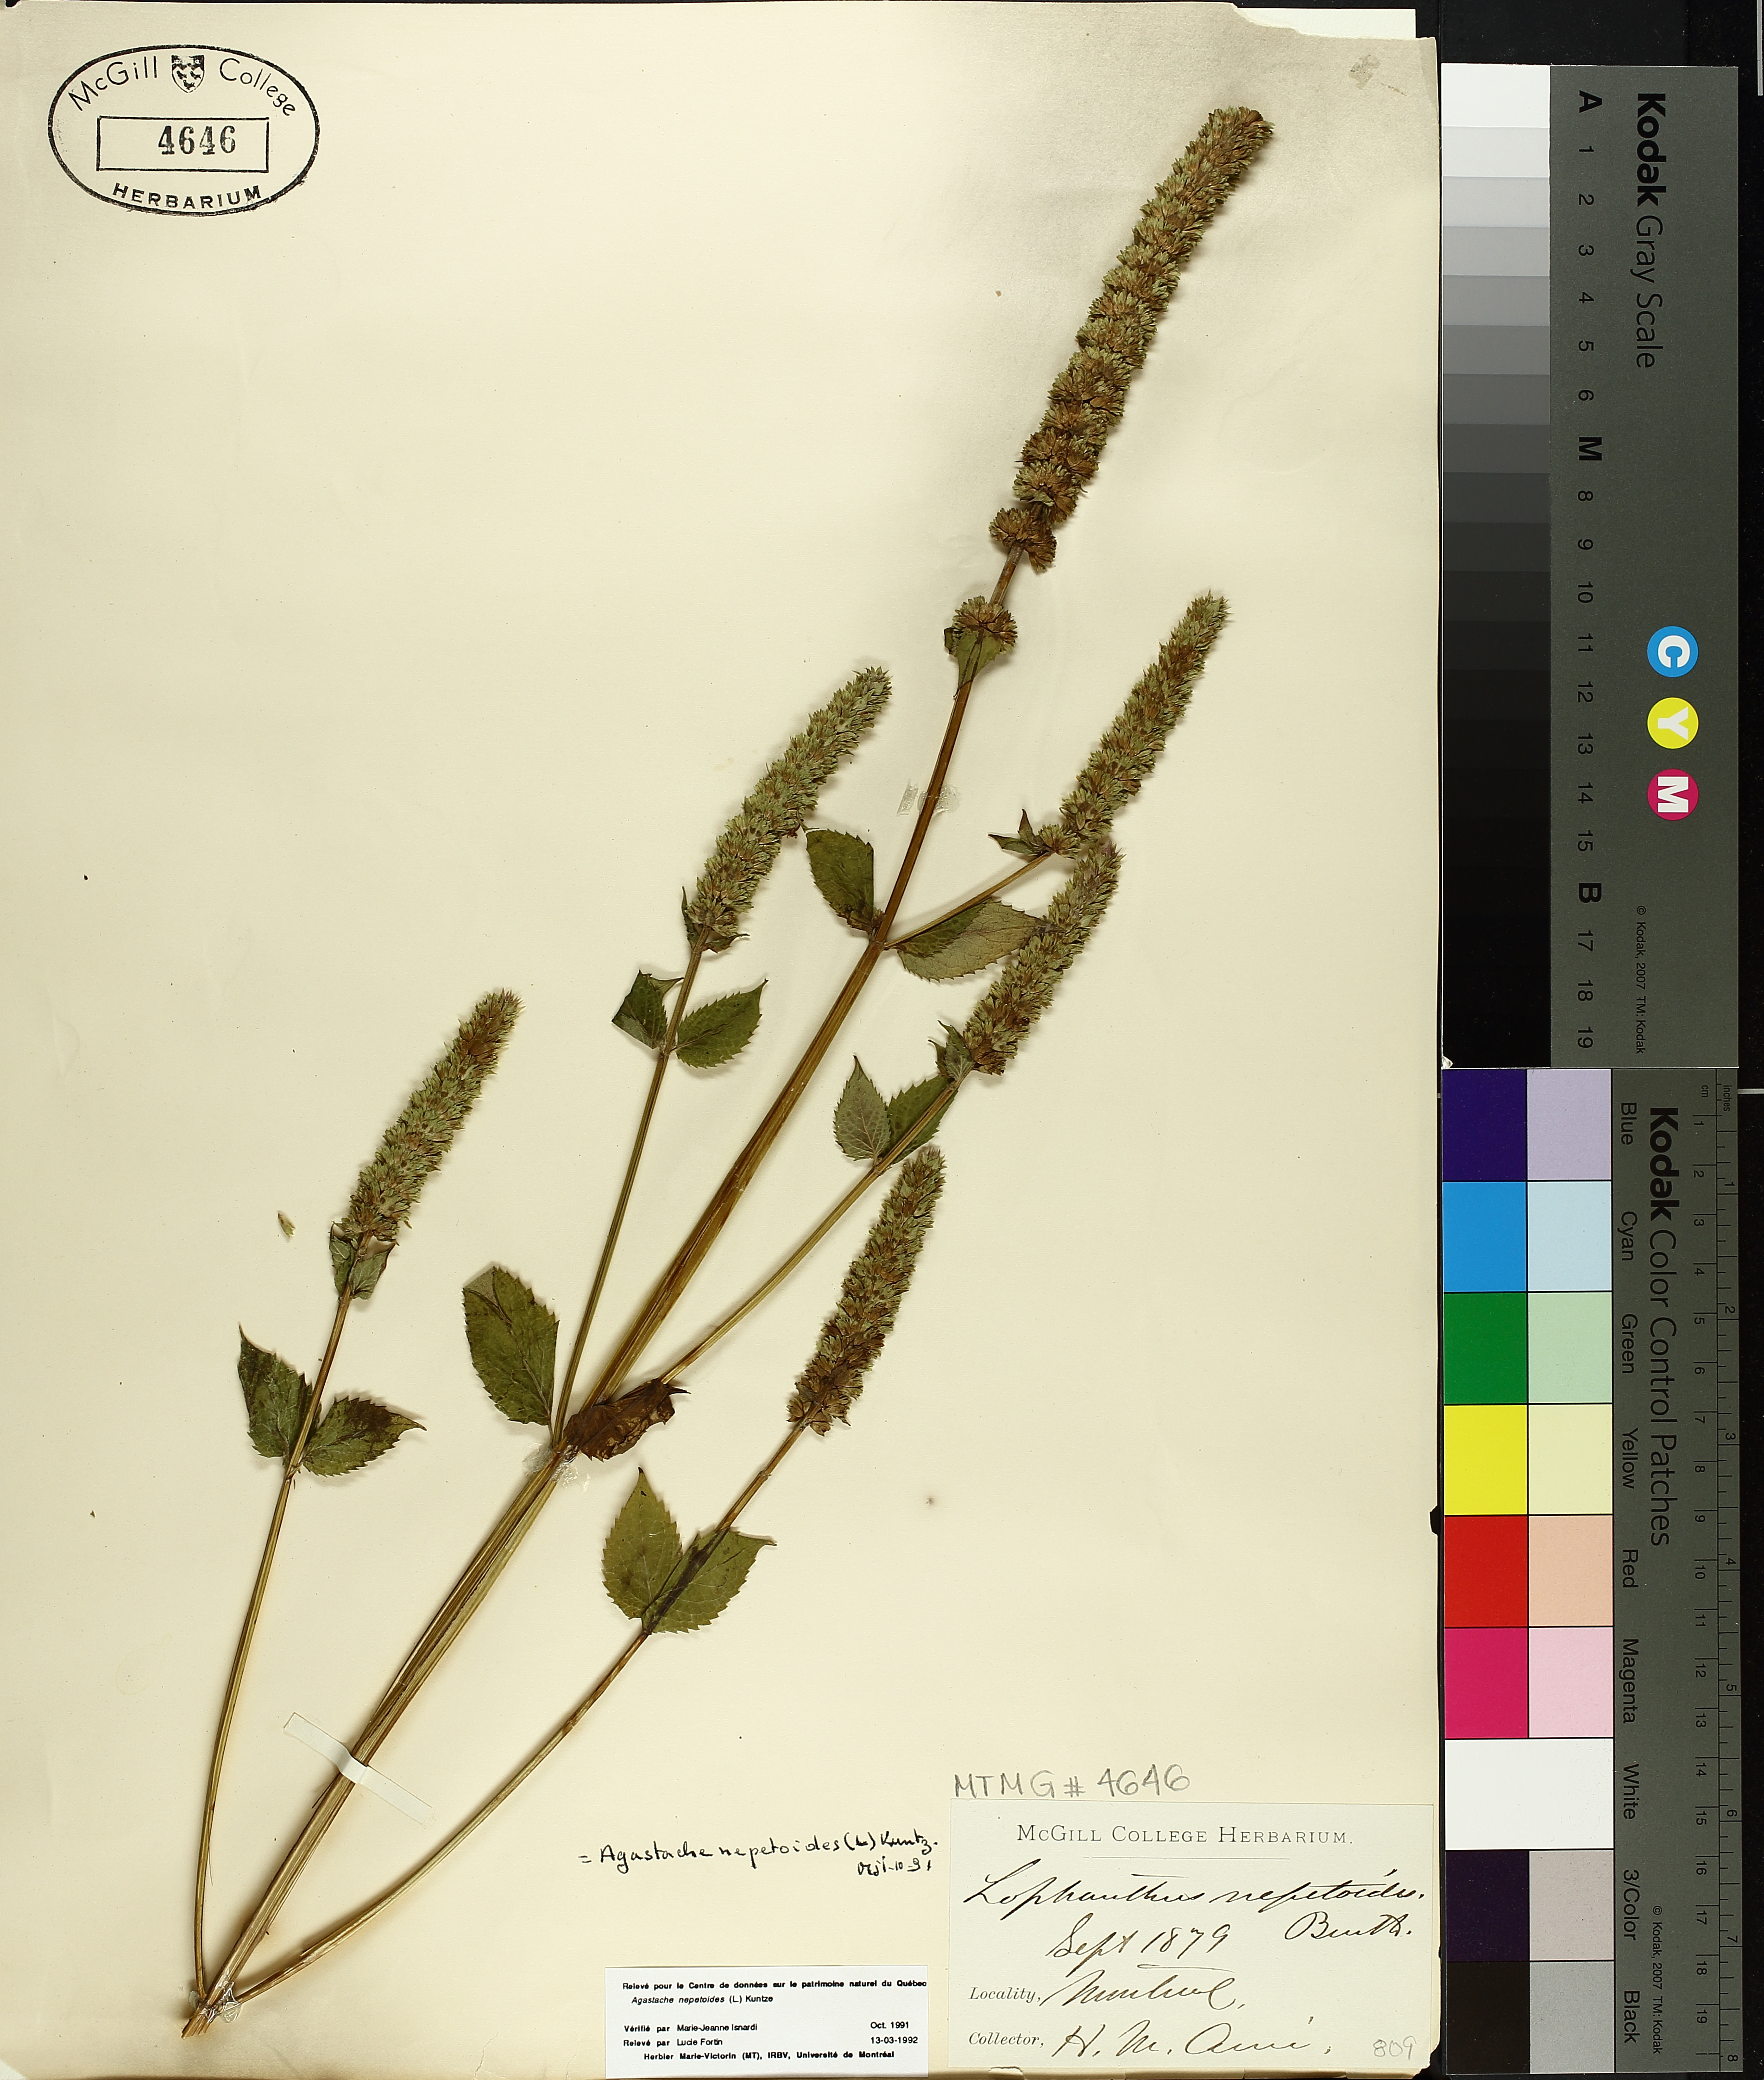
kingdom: Plantae
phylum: Tracheophyta
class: Magnoliopsida
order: Lamiales
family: Lamiaceae
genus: Agastache
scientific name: Agastache nepetoides
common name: Catnip giant hyssop
